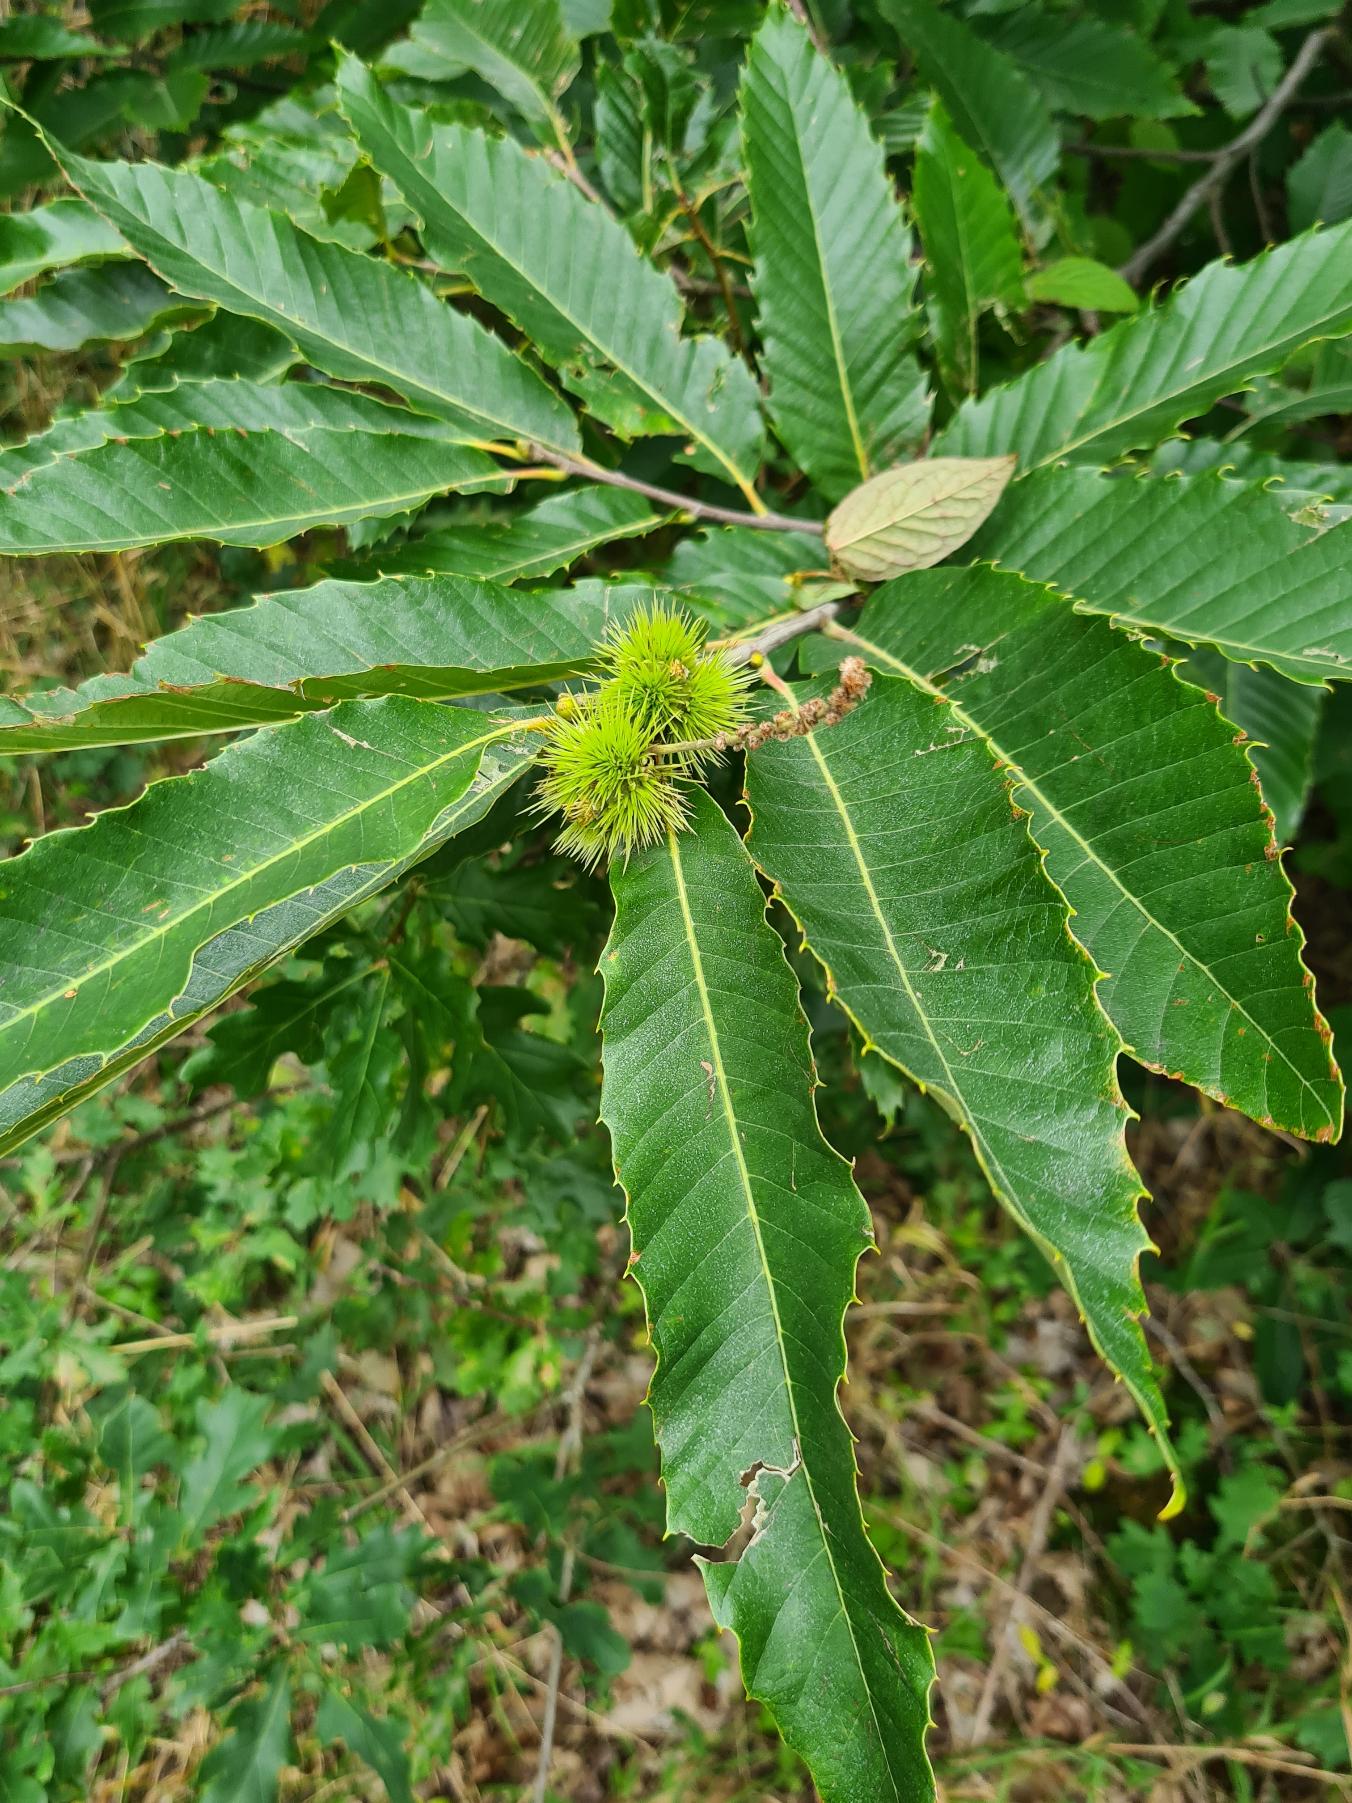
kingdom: Plantae
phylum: Tracheophyta
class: Magnoliopsida
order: Fagales
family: Fagaceae
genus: Castanea
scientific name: Castanea sativa
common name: Ægte kastanie
